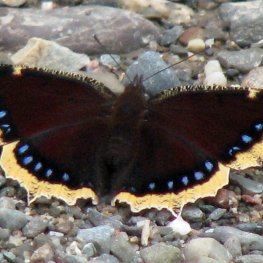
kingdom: Animalia
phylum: Arthropoda
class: Insecta
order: Lepidoptera
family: Nymphalidae
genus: Nymphalis
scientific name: Nymphalis antiopa
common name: Mourning Cloak
